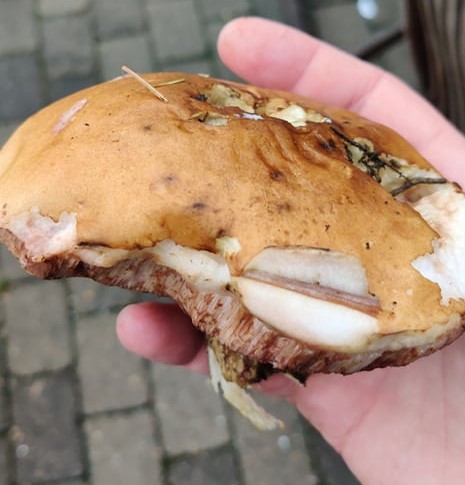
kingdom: Fungi
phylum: Basidiomycota
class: Agaricomycetes
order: Boletales
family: Boletaceae
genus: Tylopilus
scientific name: Tylopilus felleus
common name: galderørhat
